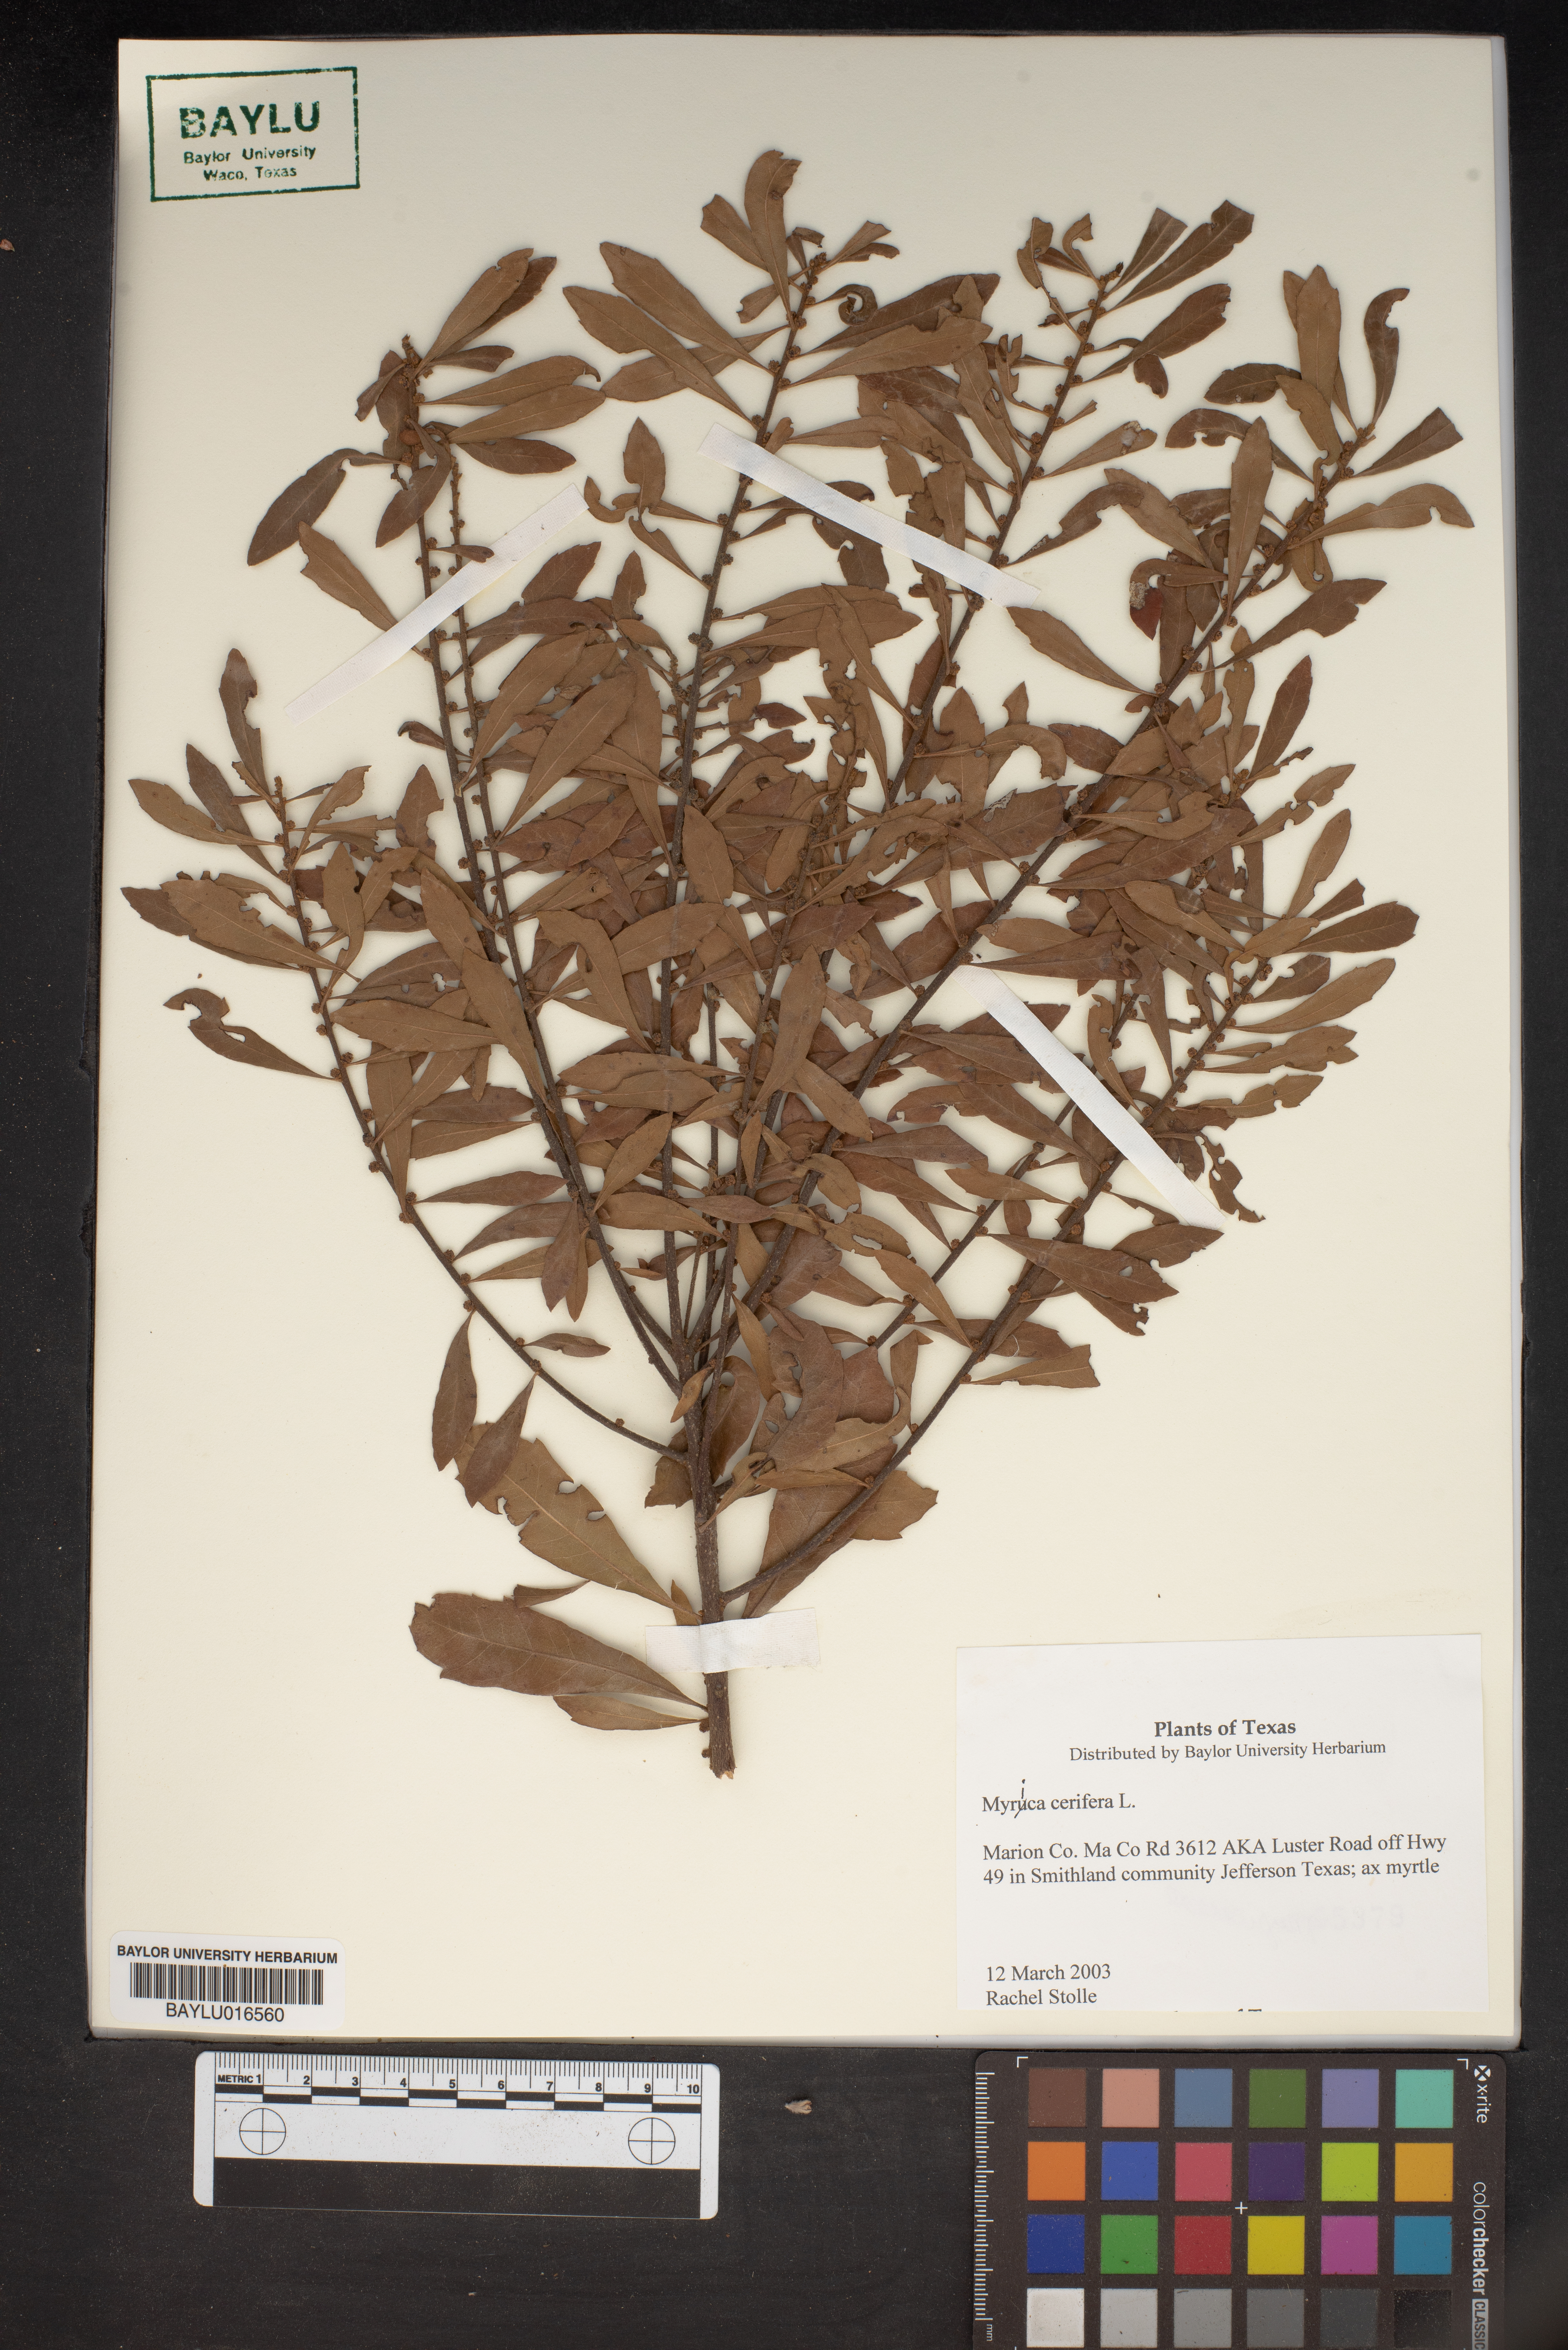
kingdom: Plantae
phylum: Tracheophyta
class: Magnoliopsida
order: Fagales
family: Myricaceae
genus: Morella
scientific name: Morella cerifera
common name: Wax myrtle
